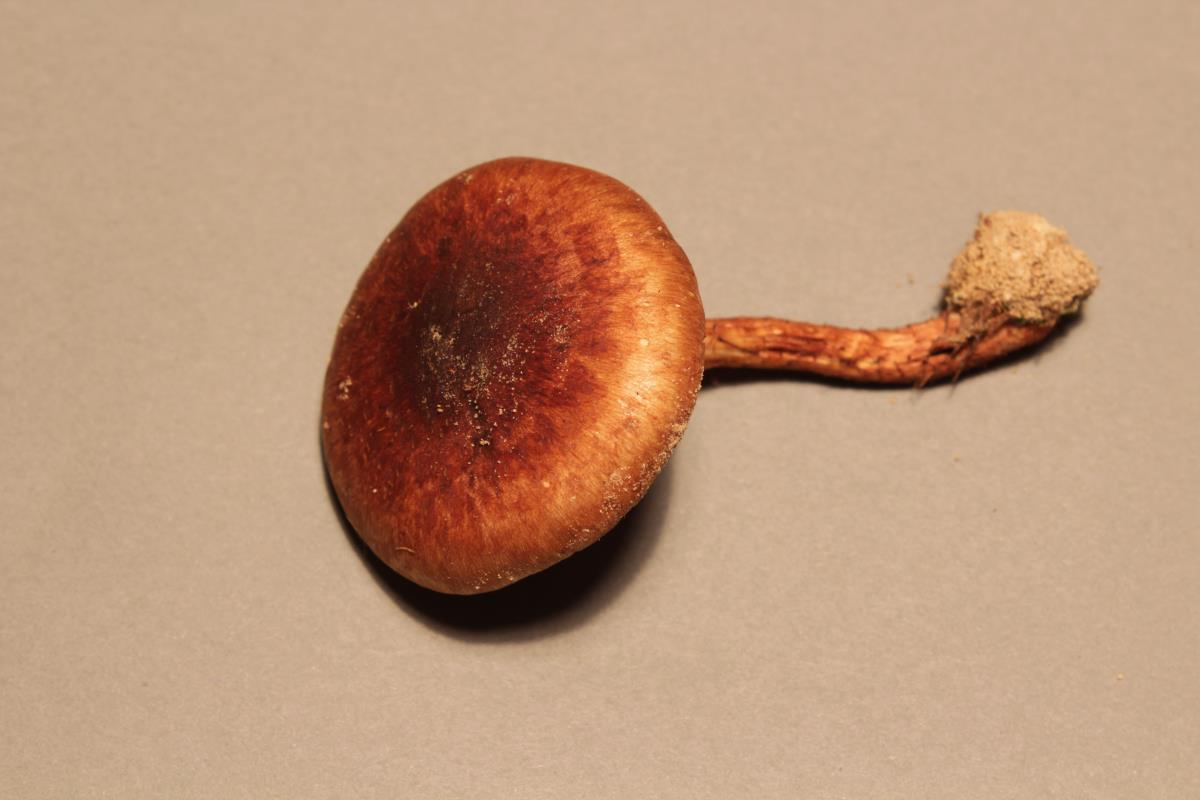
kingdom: Fungi
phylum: Basidiomycota
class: Agaricomycetes
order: Agaricales
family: Strophariaceae
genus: Pholiota
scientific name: Pholiota multicingulata
